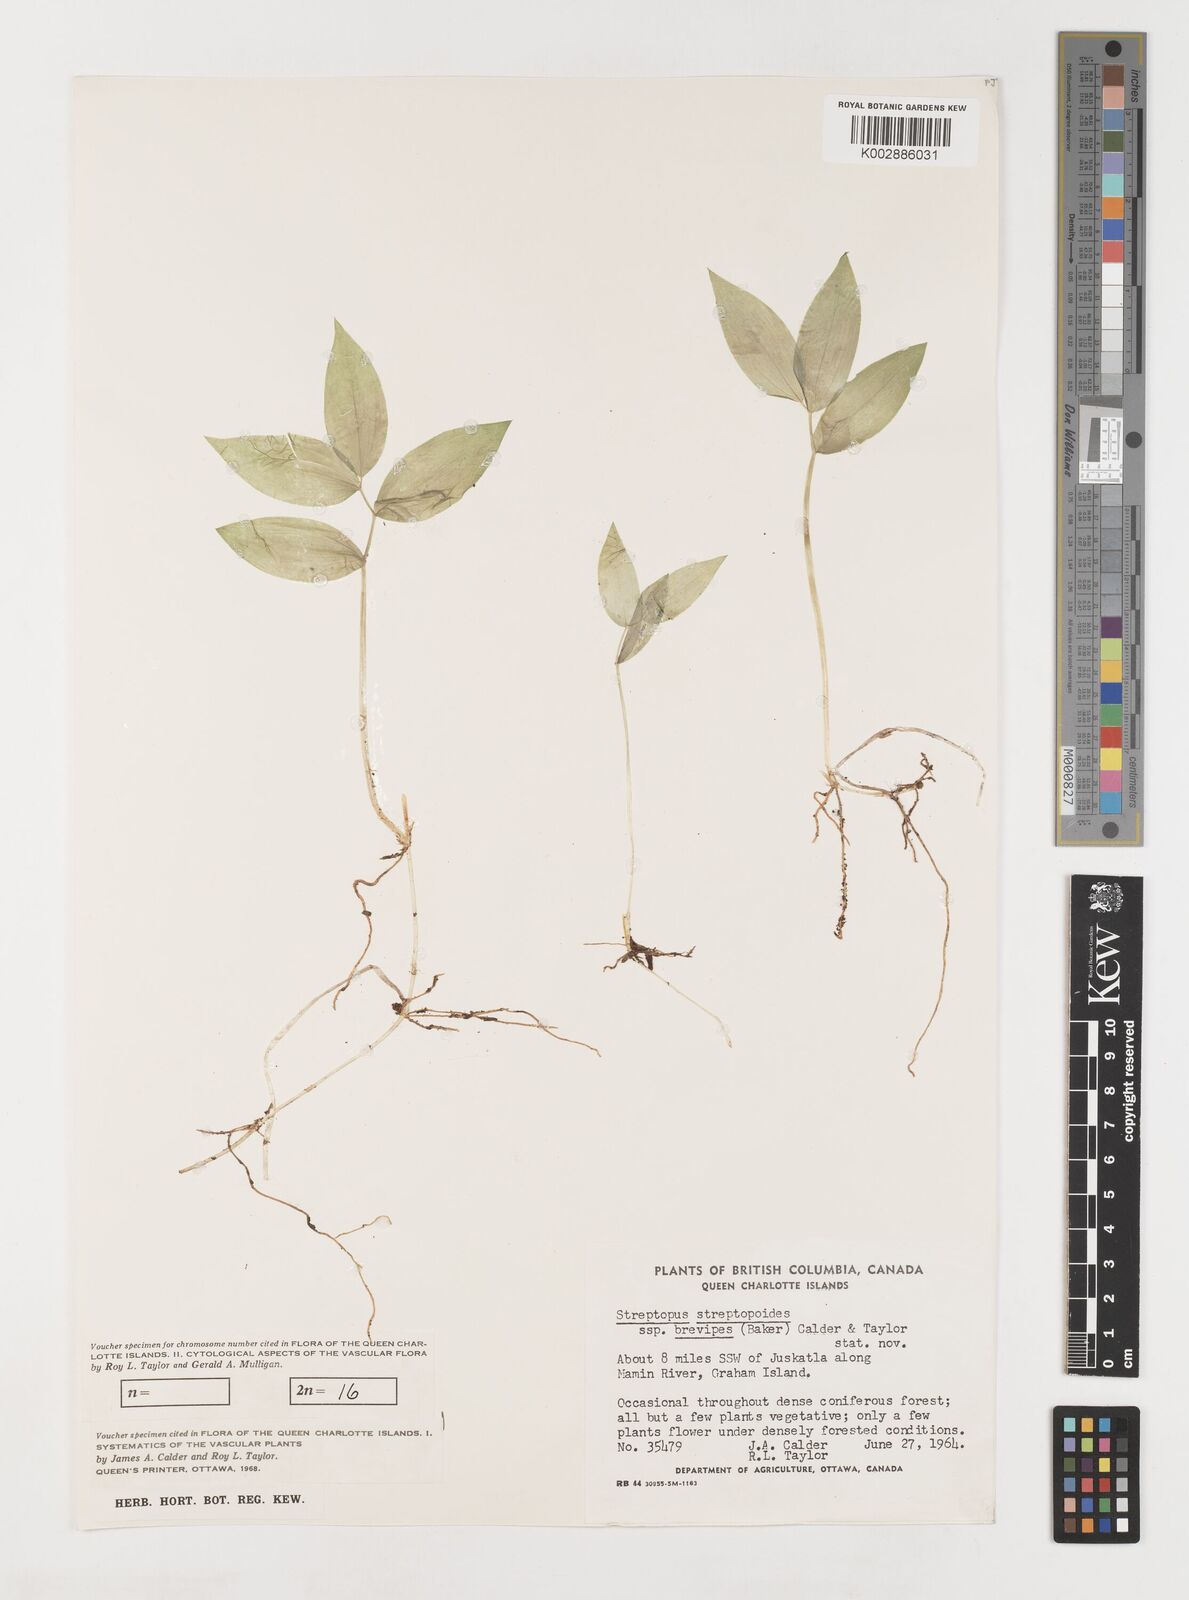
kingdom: Plantae
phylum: Tracheophyta
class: Liliopsida
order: Liliales
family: Liliaceae
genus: Streptopus
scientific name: Streptopus streptopoides
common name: Small twisted-stalk
